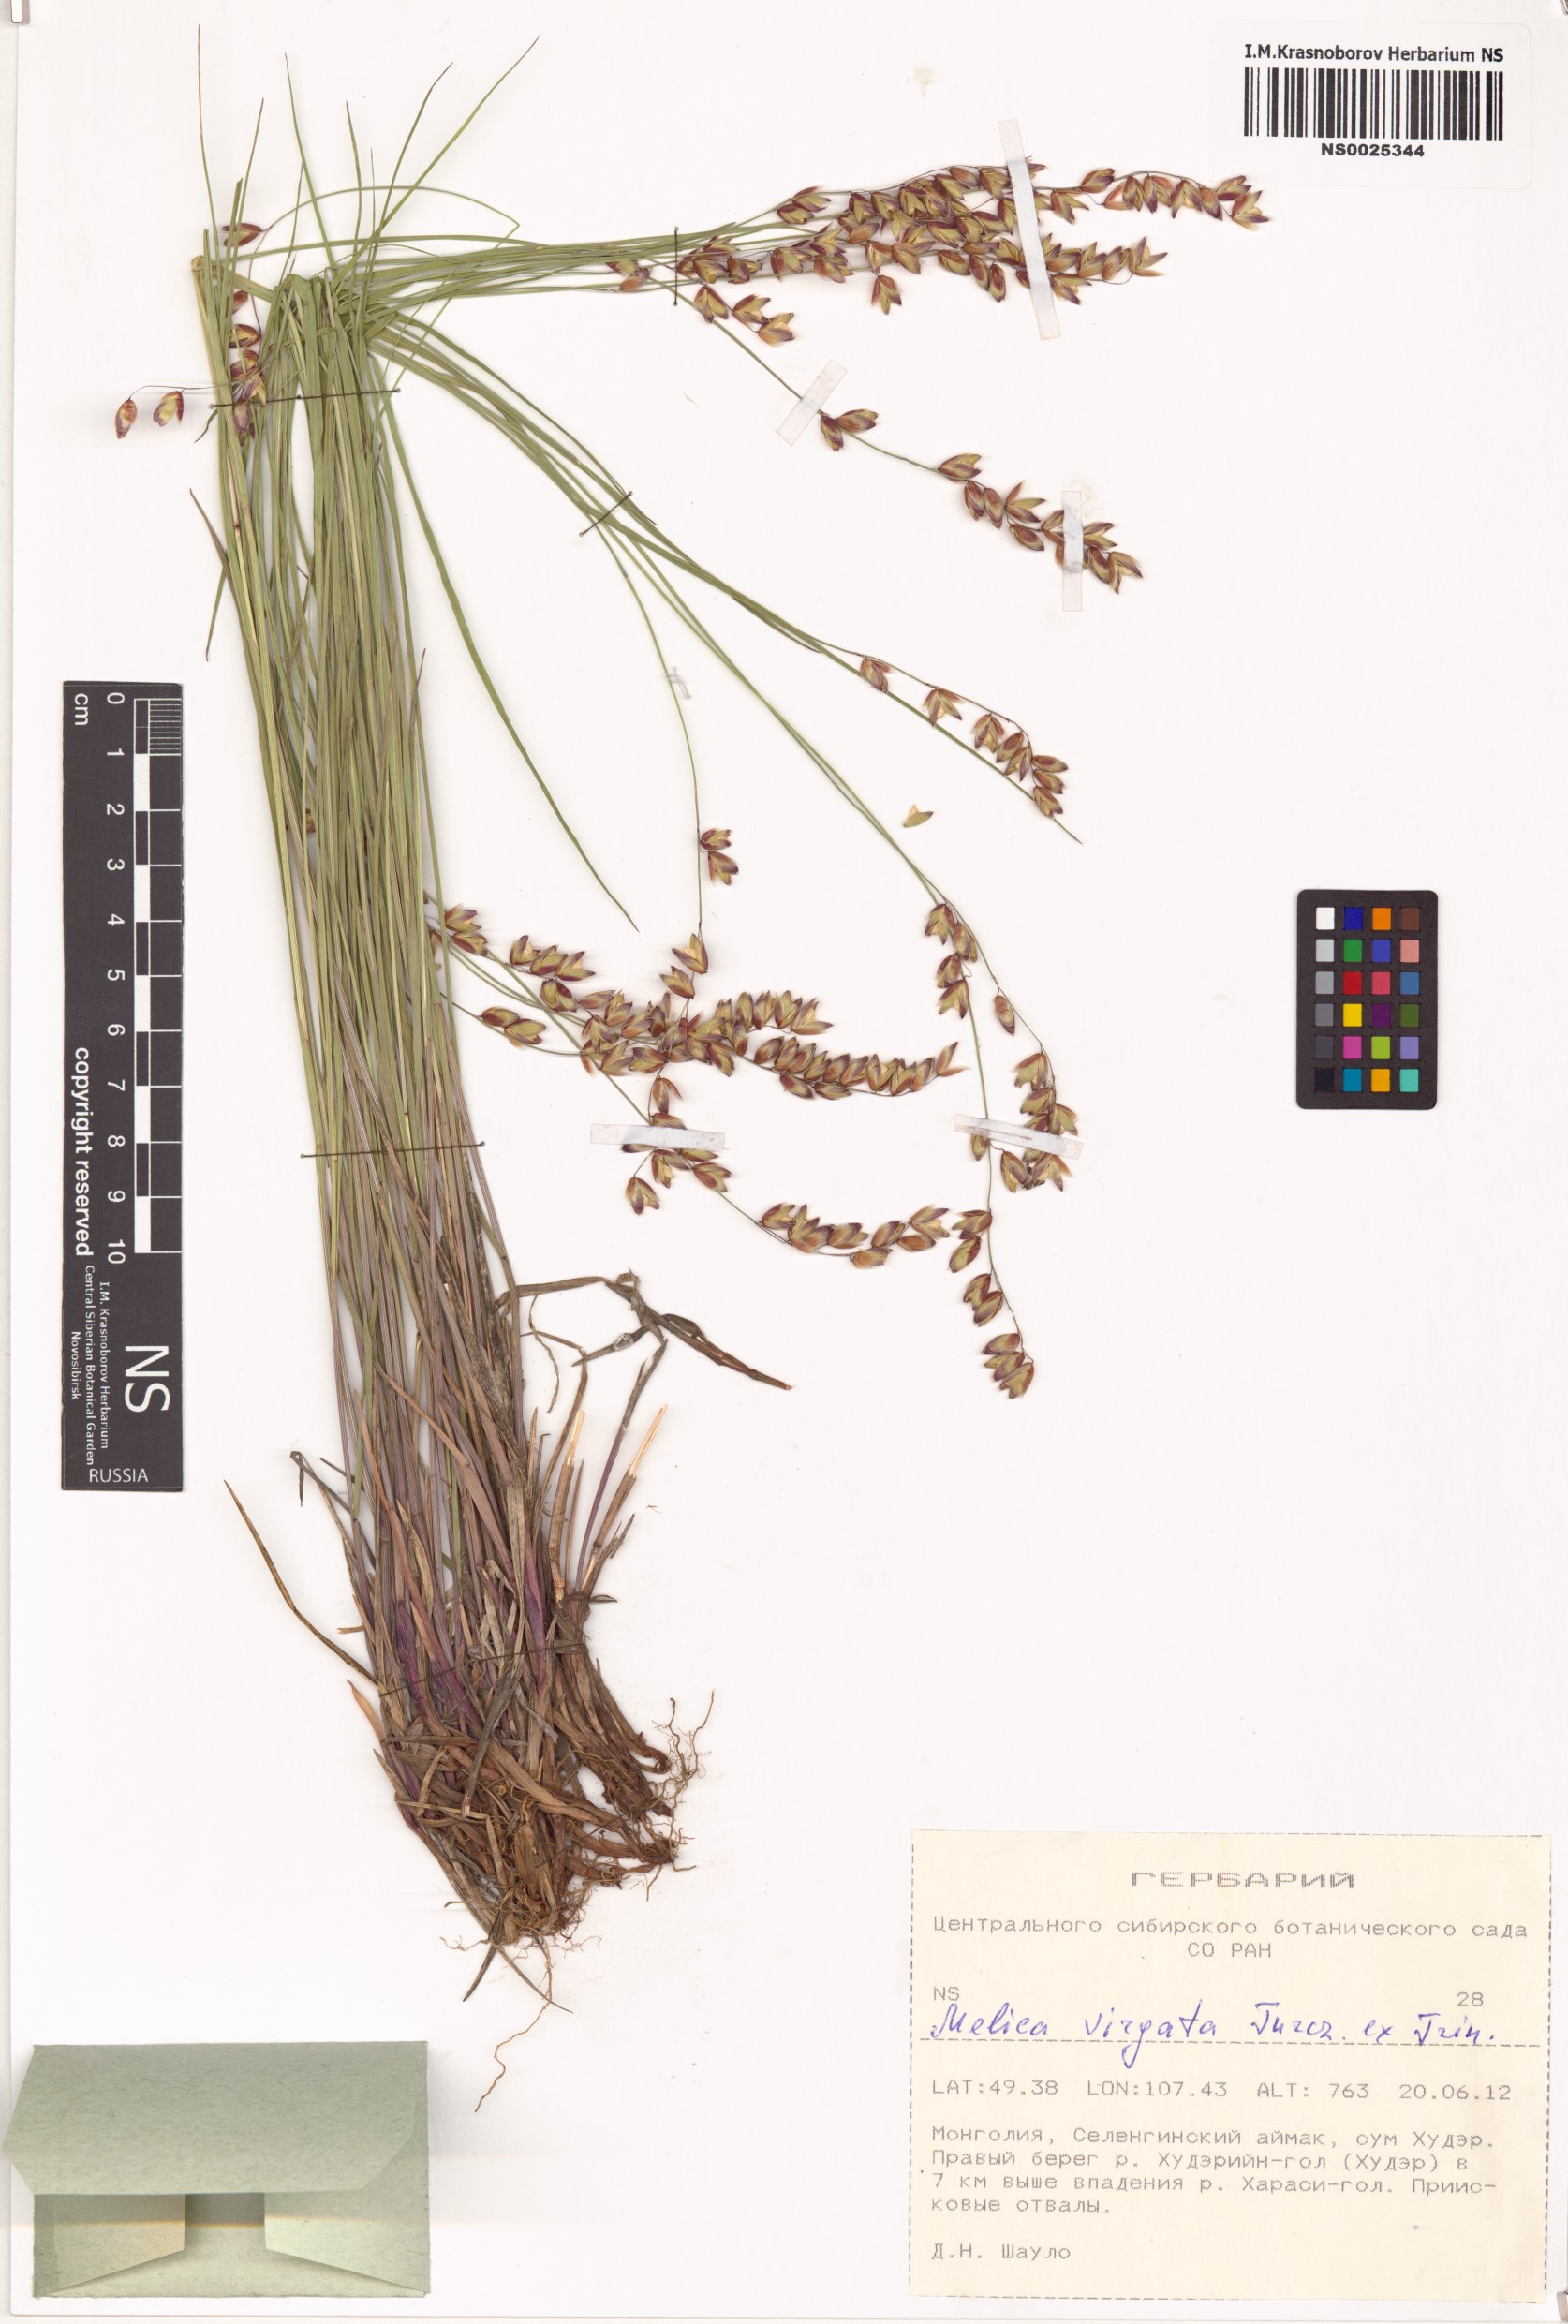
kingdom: Plantae
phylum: Tracheophyta
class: Liliopsida
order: Poales
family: Poaceae
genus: Melica
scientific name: Melica virgata
